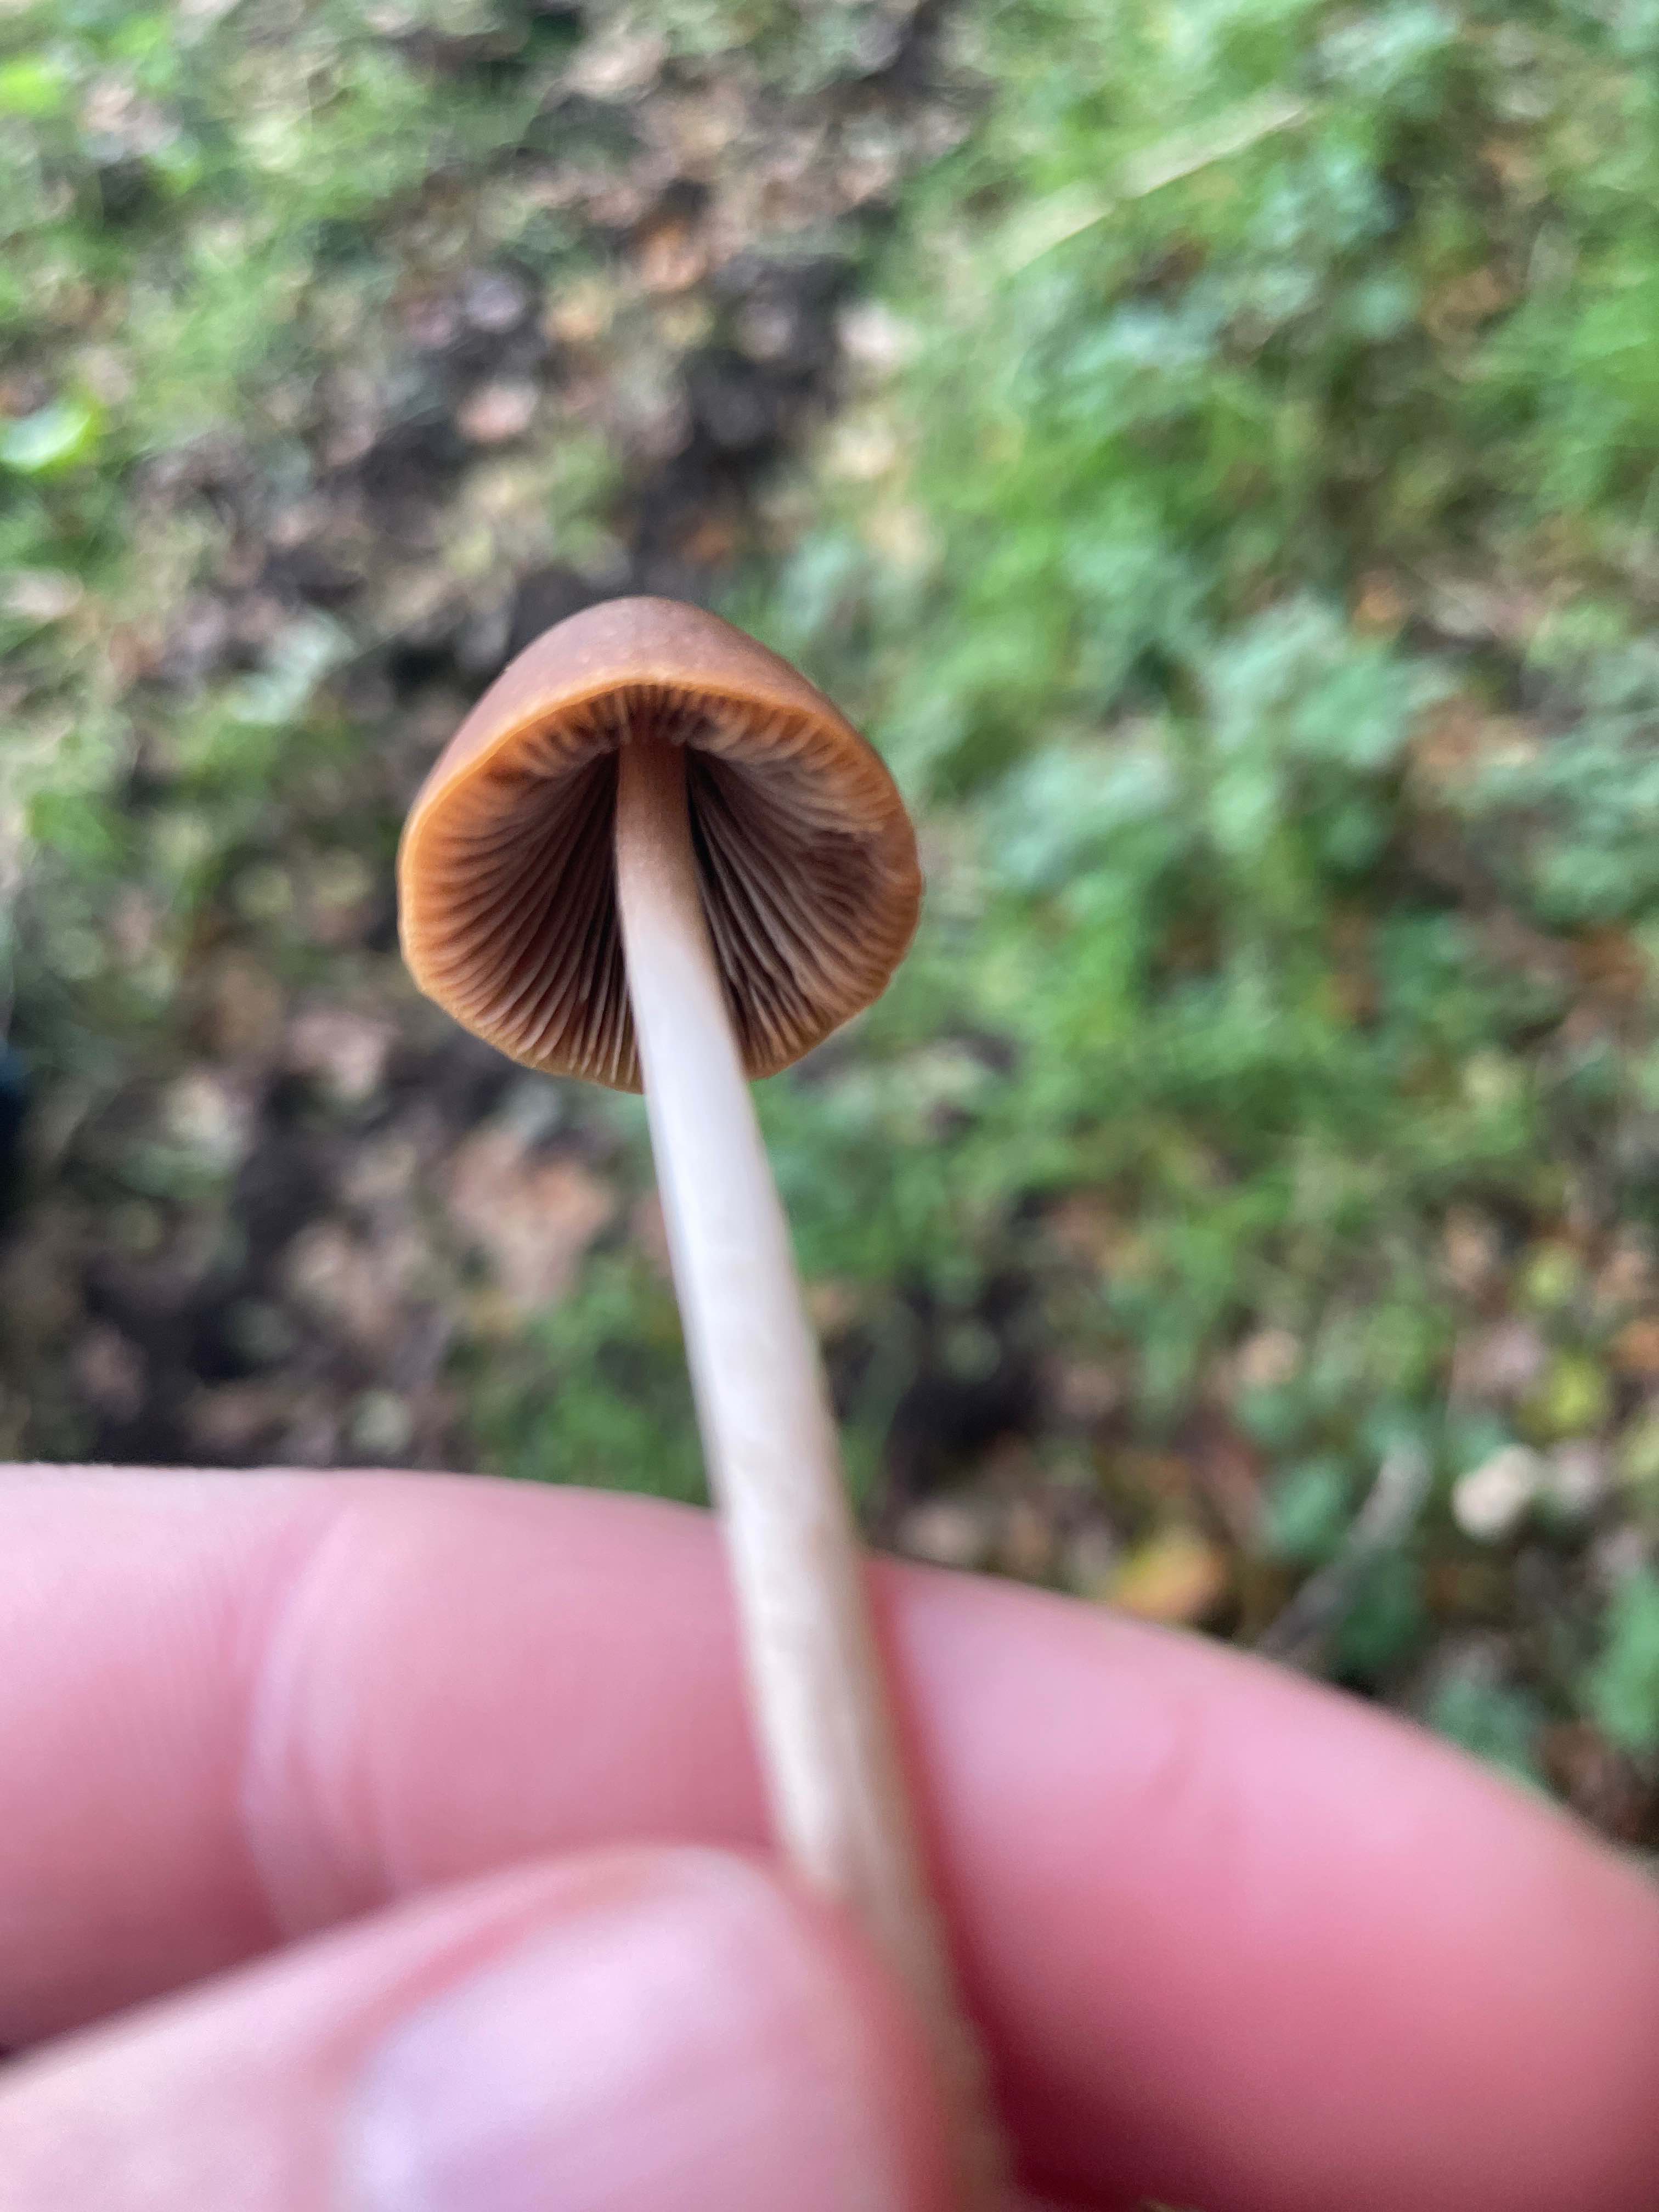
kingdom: Fungi
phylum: Basidiomycota
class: Agaricomycetes
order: Agaricales
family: Psathyrellaceae
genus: Parasola
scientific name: Parasola conopilea
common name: kegle-hjulhat
